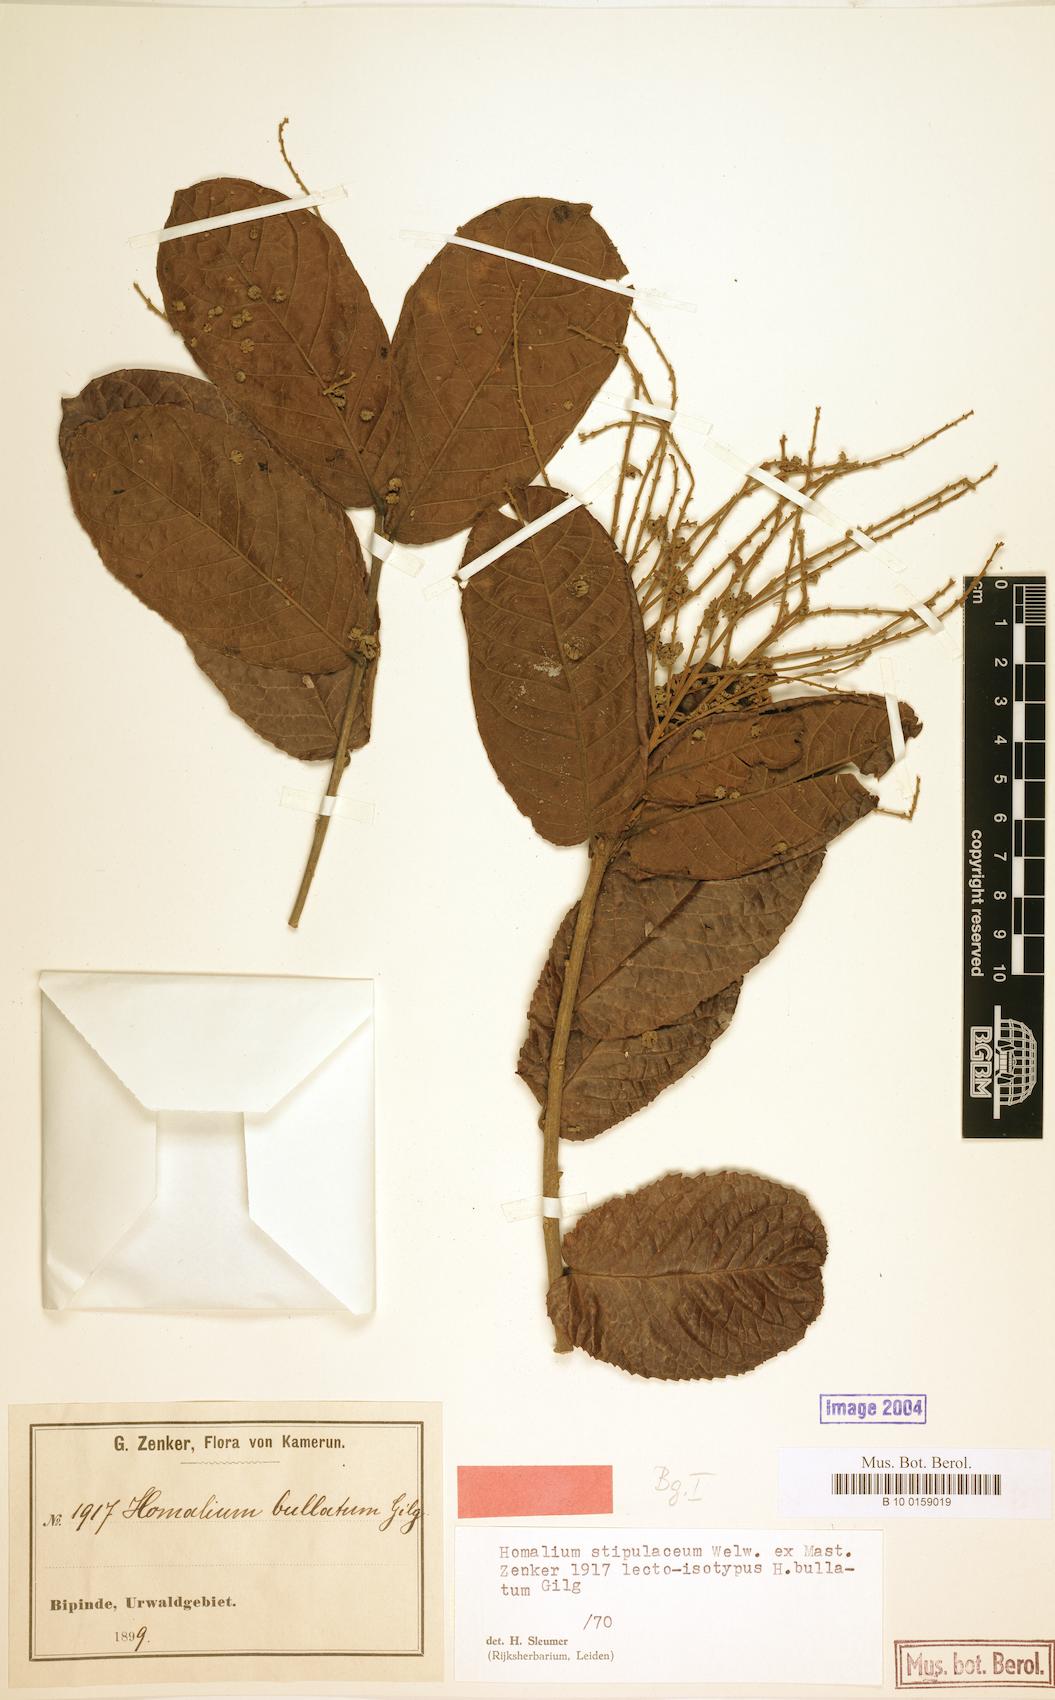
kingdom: Plantae
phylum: Tracheophyta
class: Magnoliopsida
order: Malpighiales
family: Salicaceae
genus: Homalium
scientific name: Homalium stipulaceum
